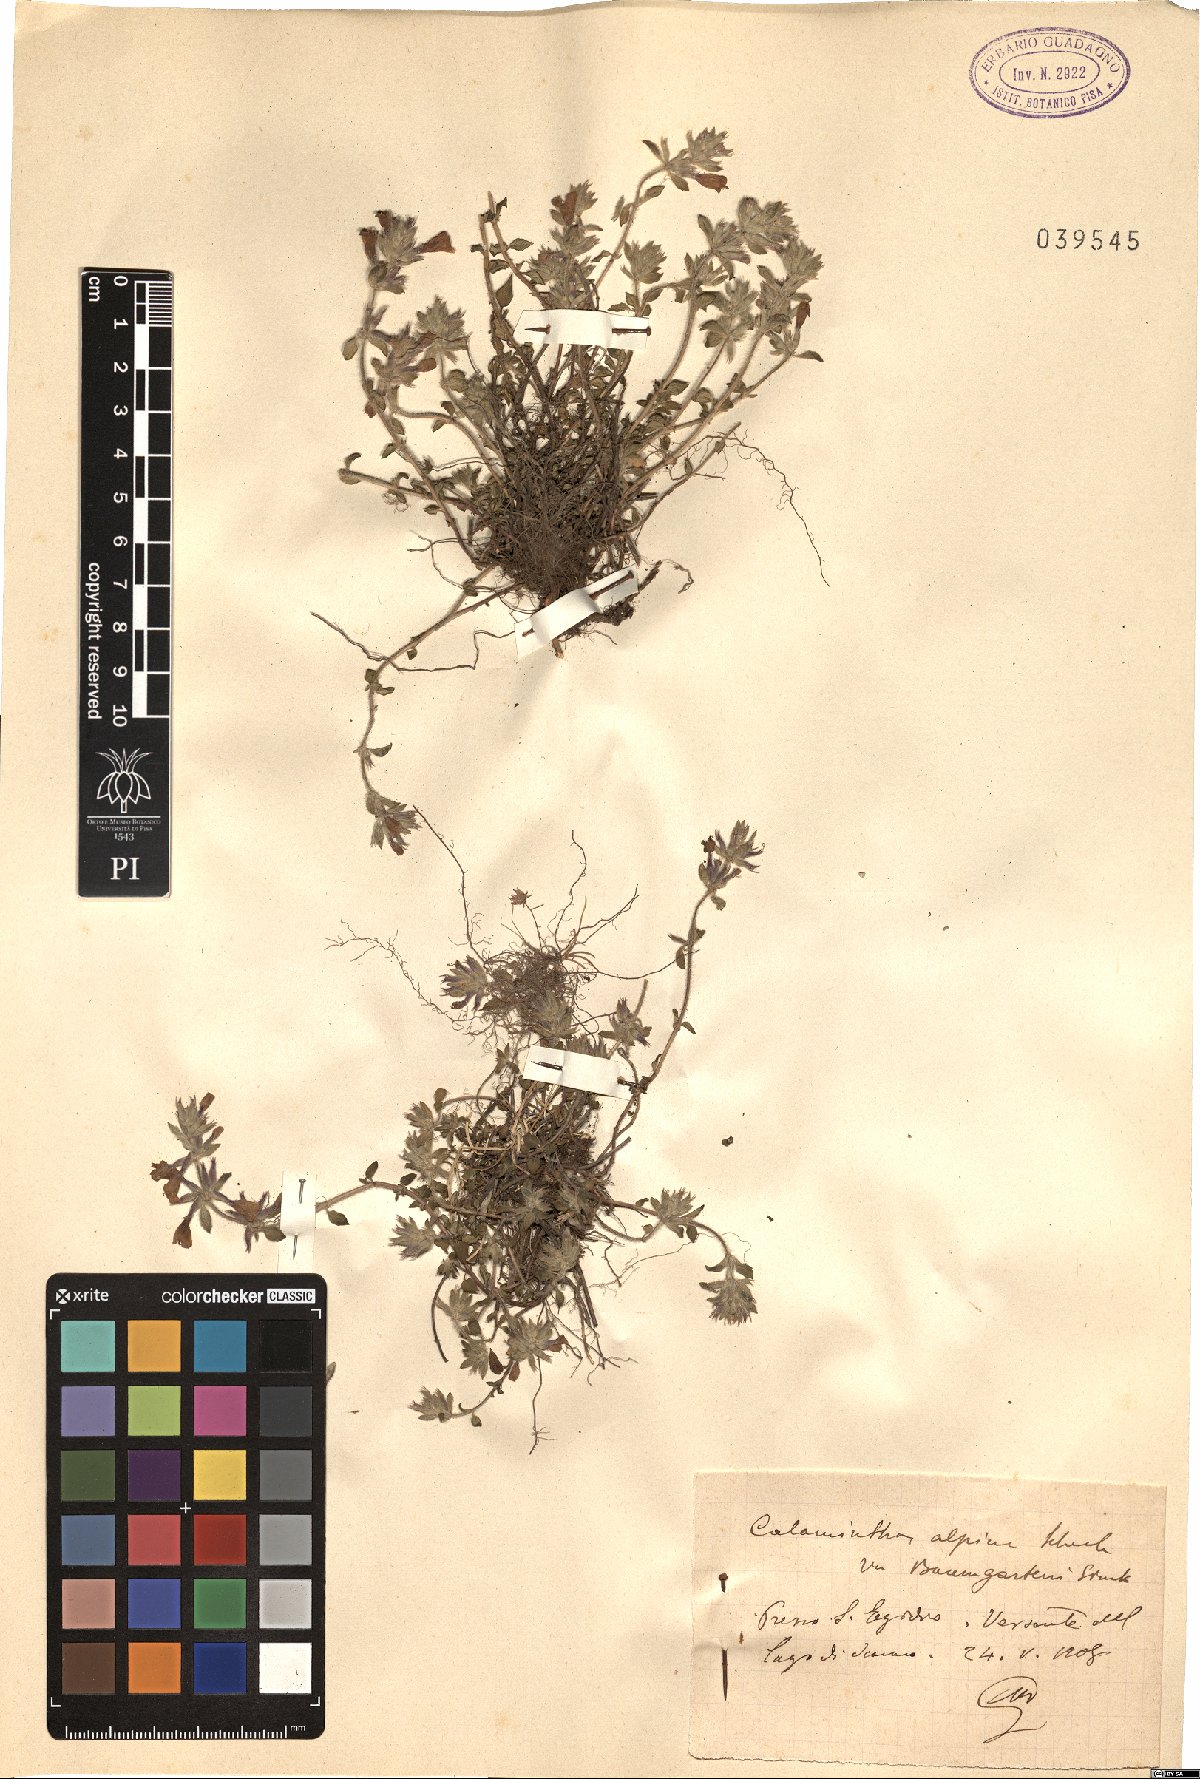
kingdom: Plantae
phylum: Tracheophyta
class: Magnoliopsida
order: Lamiales
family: Lamiaceae
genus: Clinopodium
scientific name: Clinopodium alpinum
